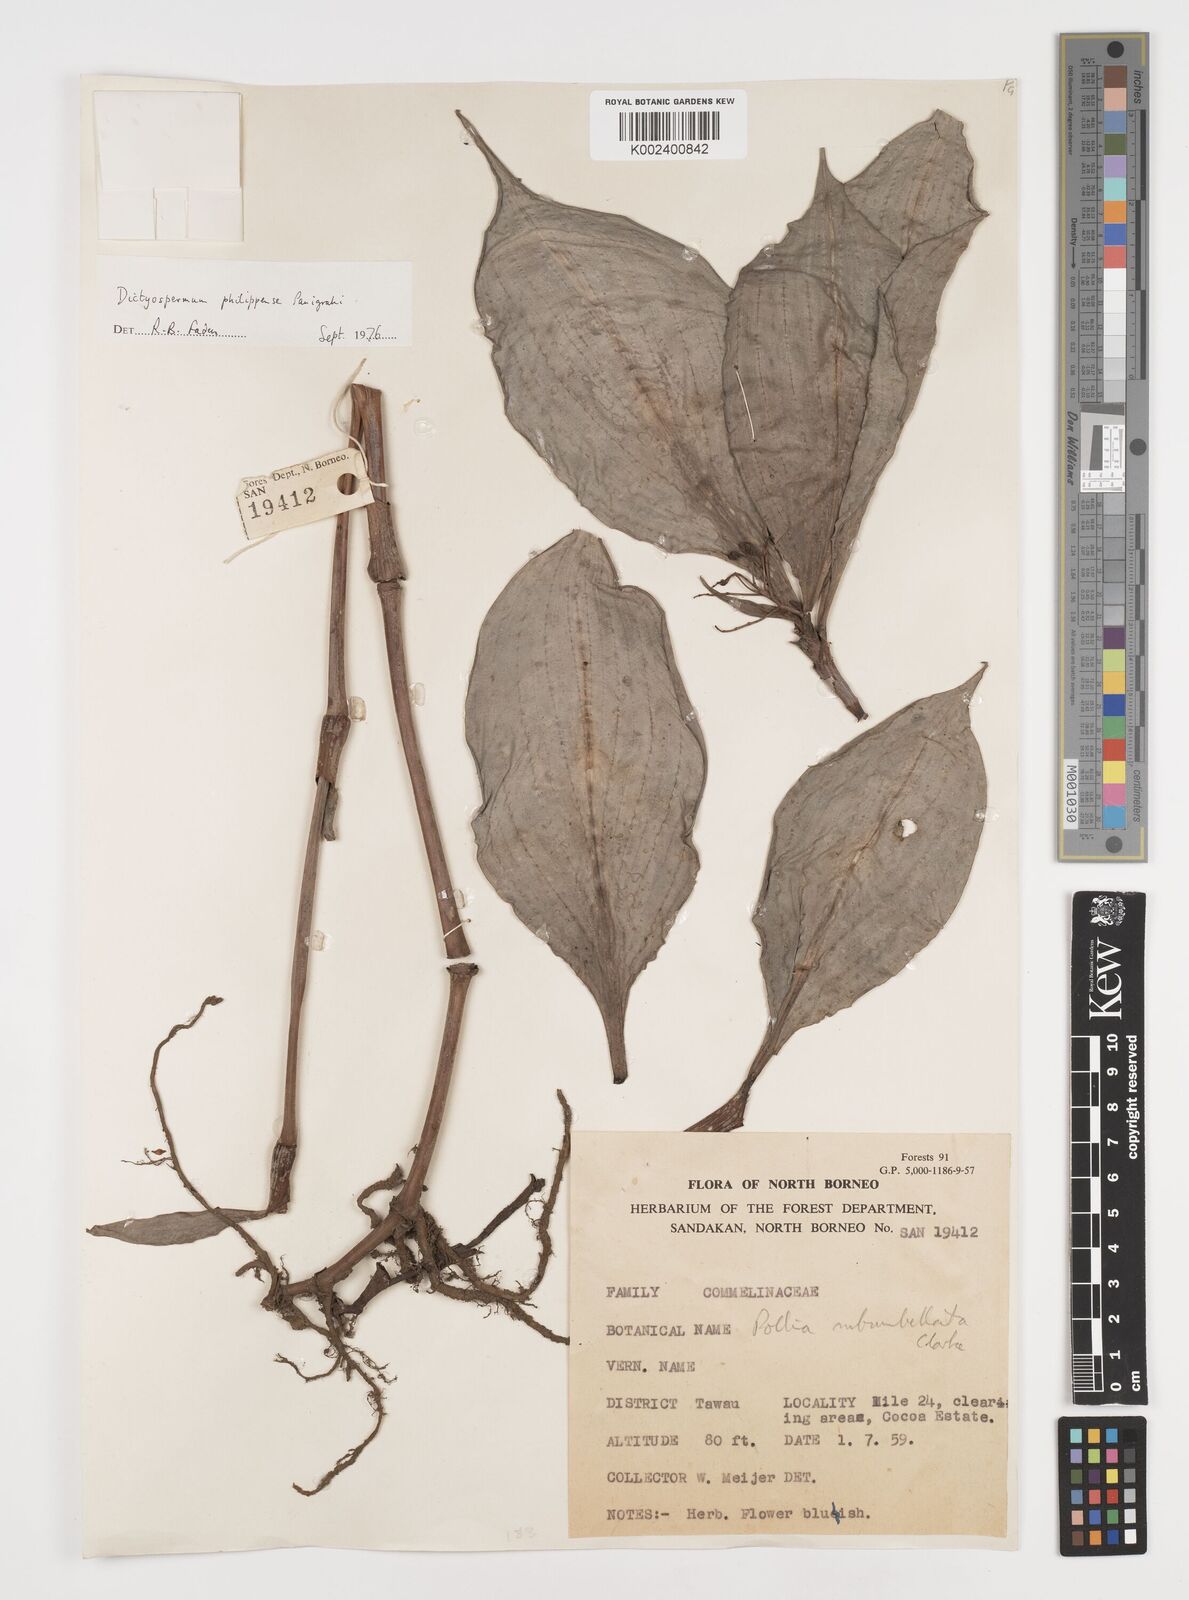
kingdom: Plantae
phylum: Tracheophyta
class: Liliopsida
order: Commelinales
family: Commelinaceae
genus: Tricarpelema
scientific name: Tricarpelema philippense
